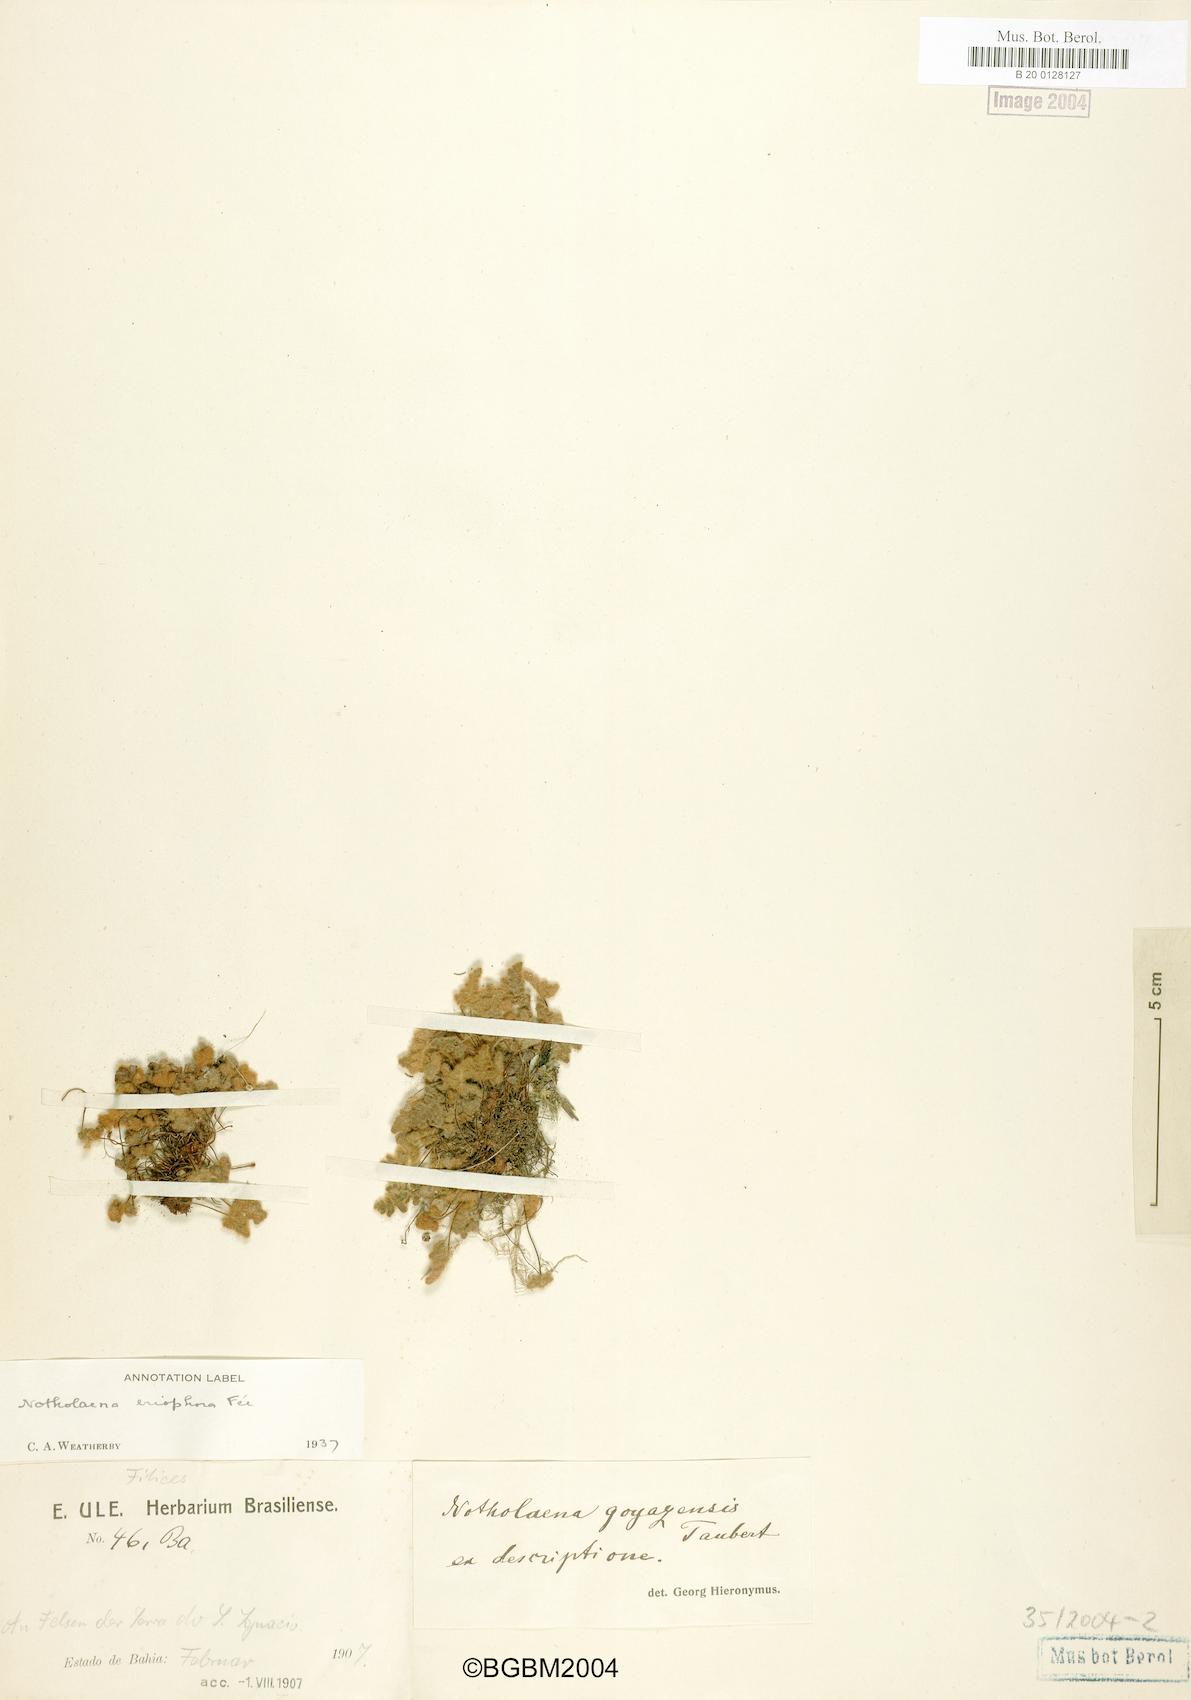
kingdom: Plantae
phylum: Tracheophyta
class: Polypodiopsida
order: Polypodiales
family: Pteridaceae
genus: Mineirella
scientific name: Mineirella goyazensis
